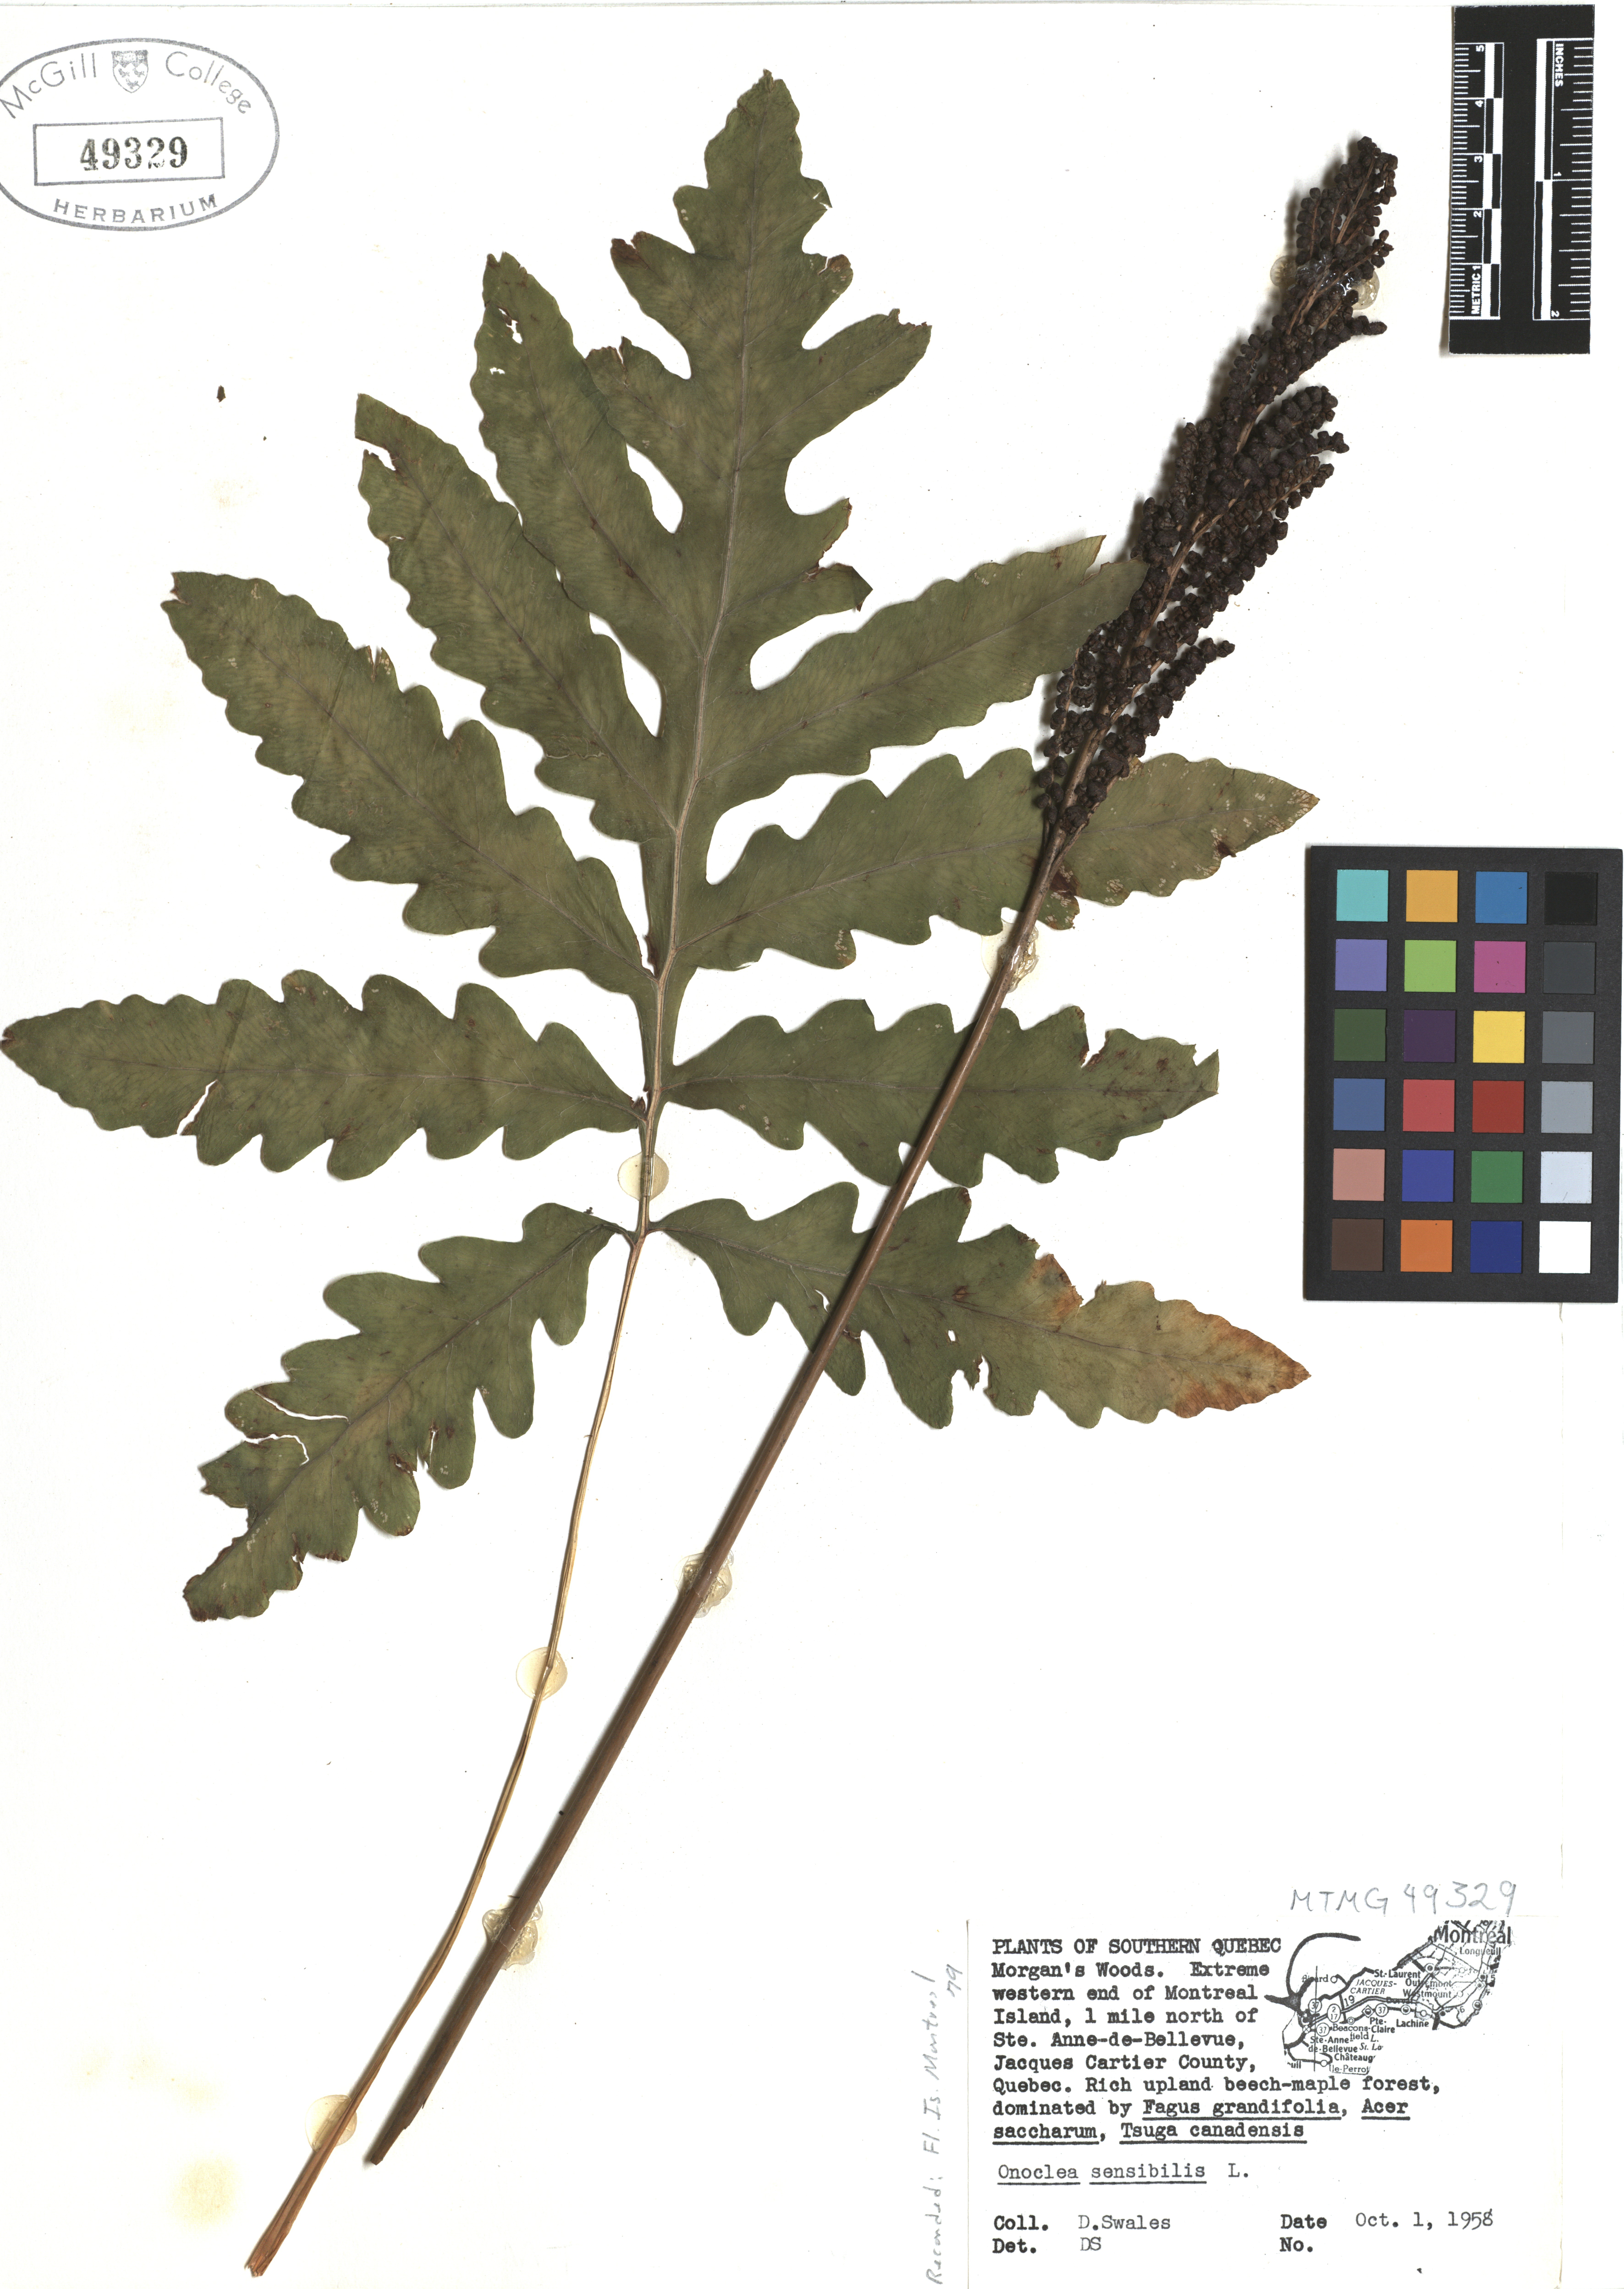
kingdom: Plantae
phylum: Tracheophyta
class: Polypodiopsida
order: Polypodiales
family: Onocleaceae
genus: Onoclea
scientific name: Onoclea sensibilis
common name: Sensitive fern
